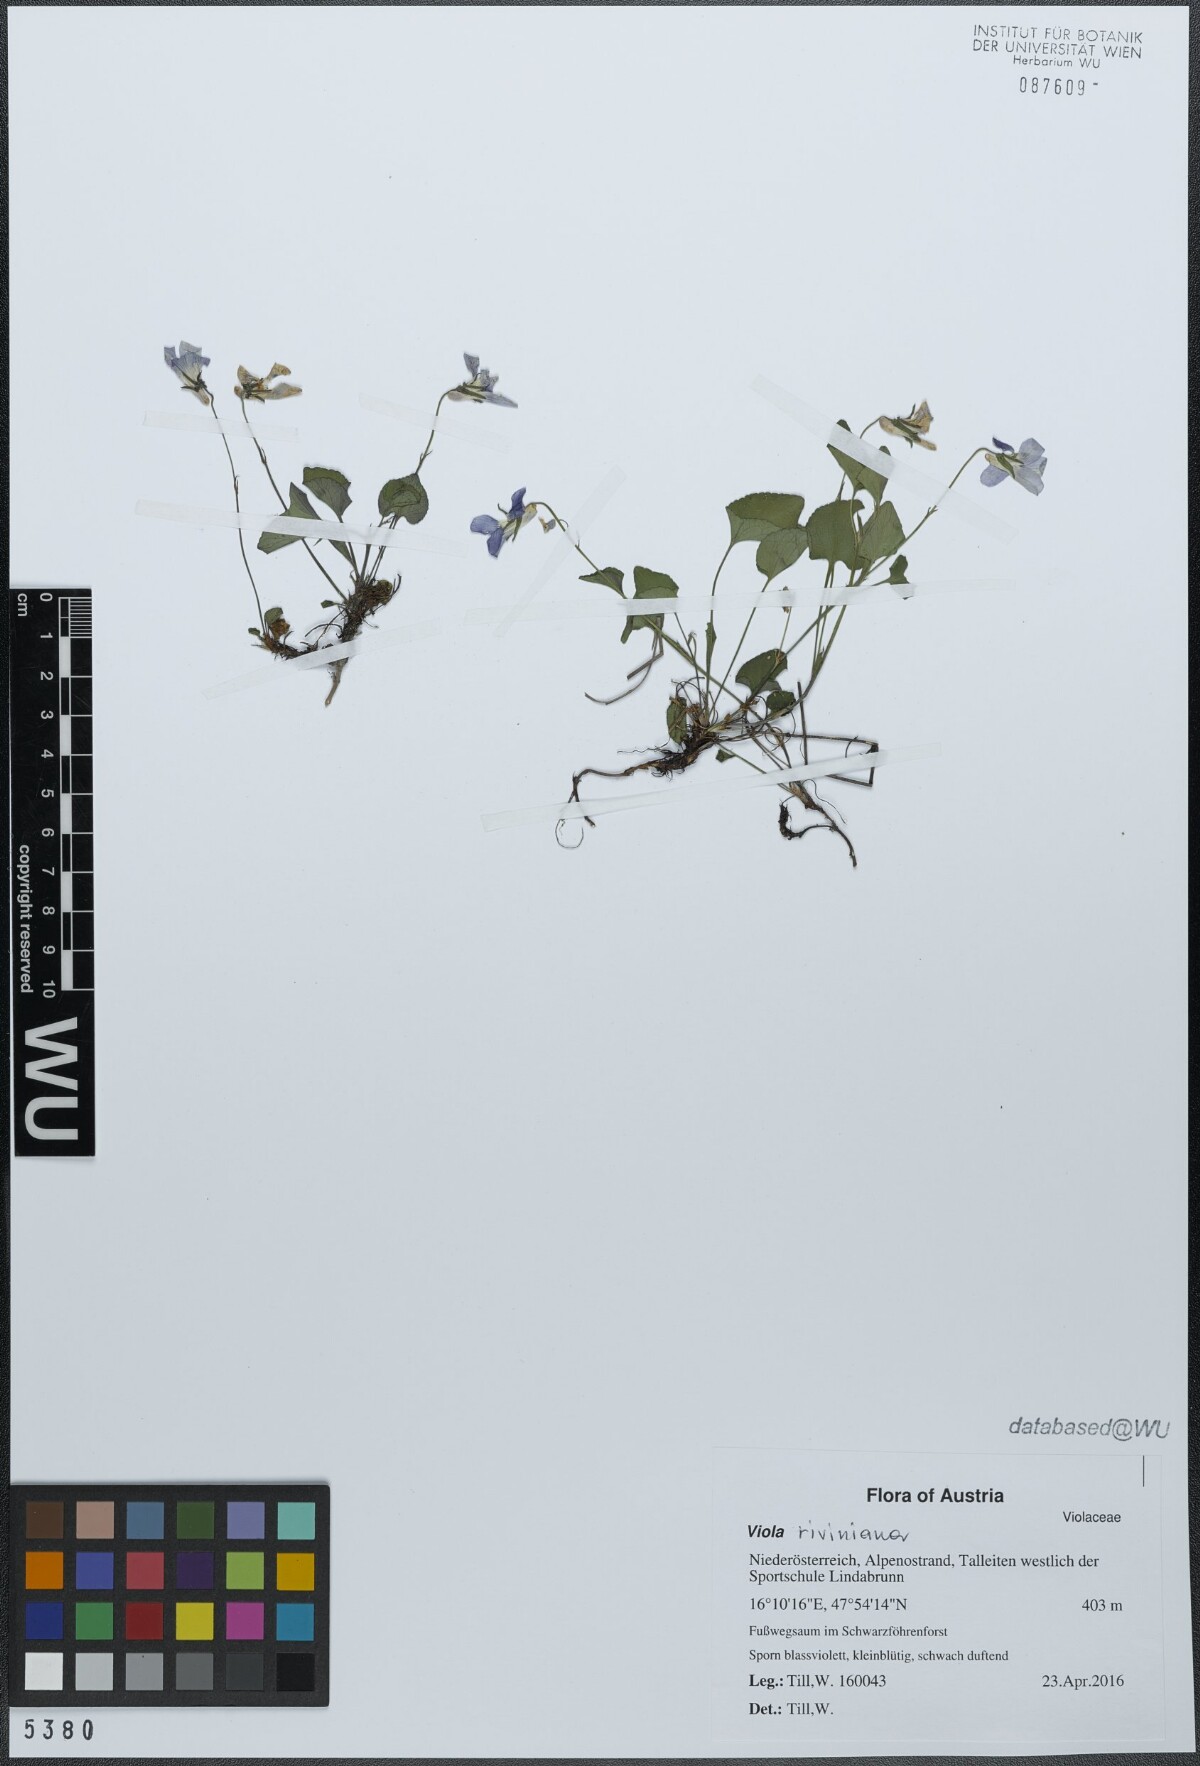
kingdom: Plantae
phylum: Tracheophyta
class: Magnoliopsida
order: Malpighiales
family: Violaceae
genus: Viola
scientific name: Viola riviniana
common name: Common dog-violet
